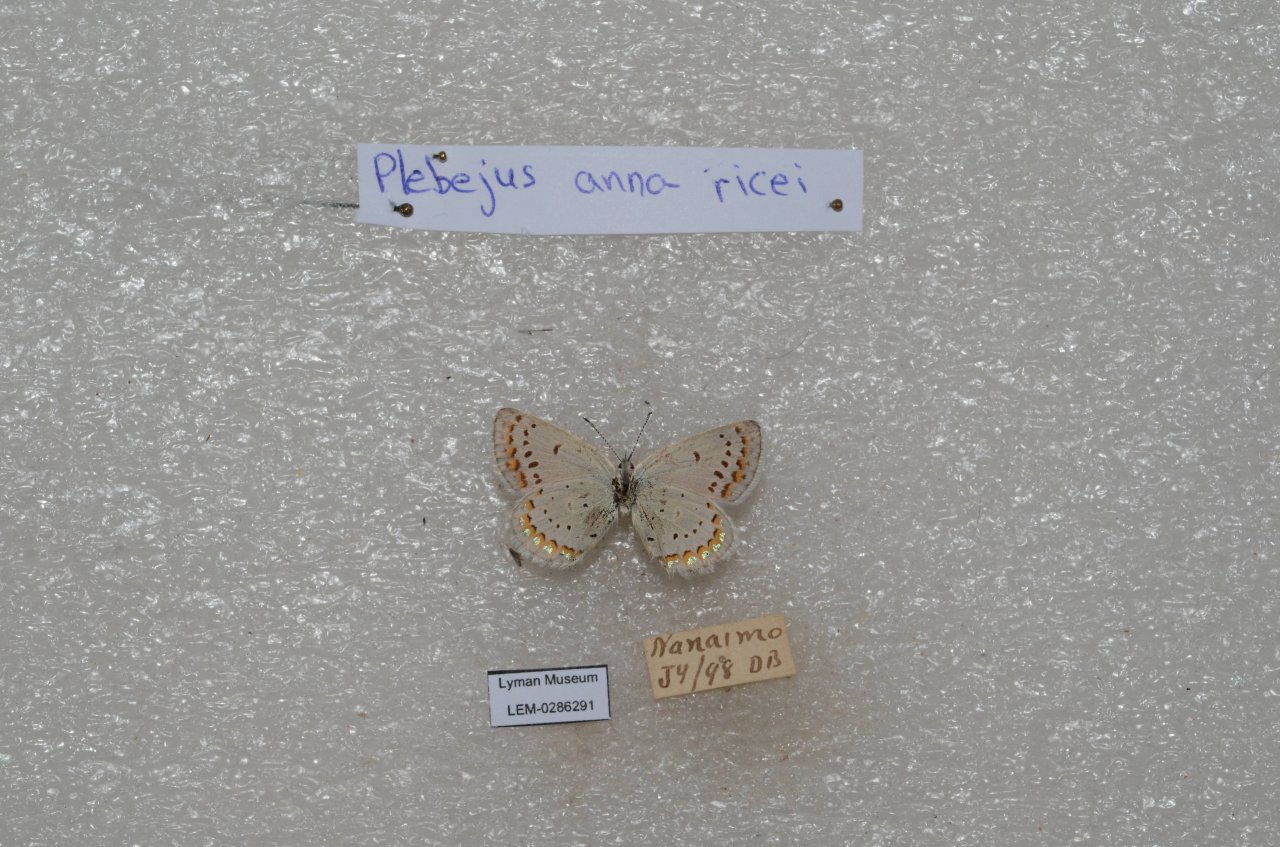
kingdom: Animalia
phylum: Arthropoda
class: Insecta
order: Lepidoptera
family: Lycaenidae
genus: Lycaeides
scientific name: Lycaeides anna
